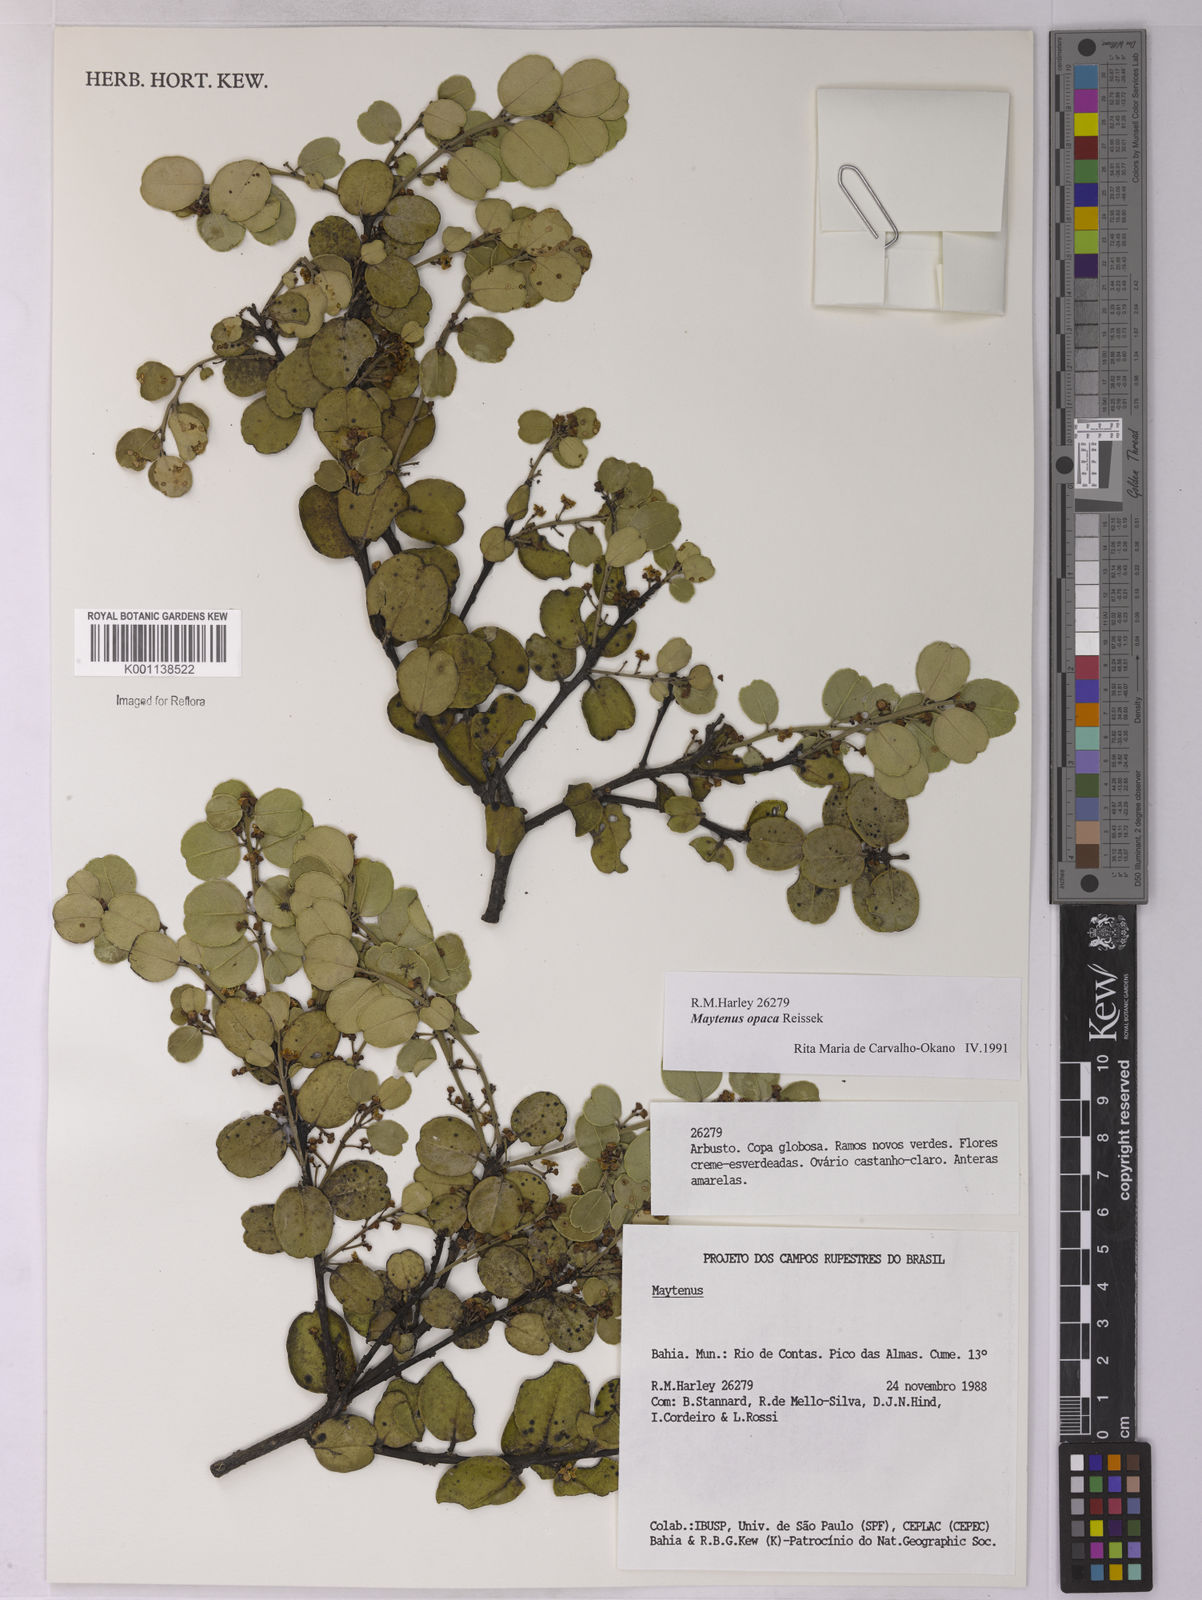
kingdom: Plantae
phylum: Tracheophyta
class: Magnoliopsida
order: Celastrales
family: Celastraceae
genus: Monteverdia
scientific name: Monteverdia opaca
